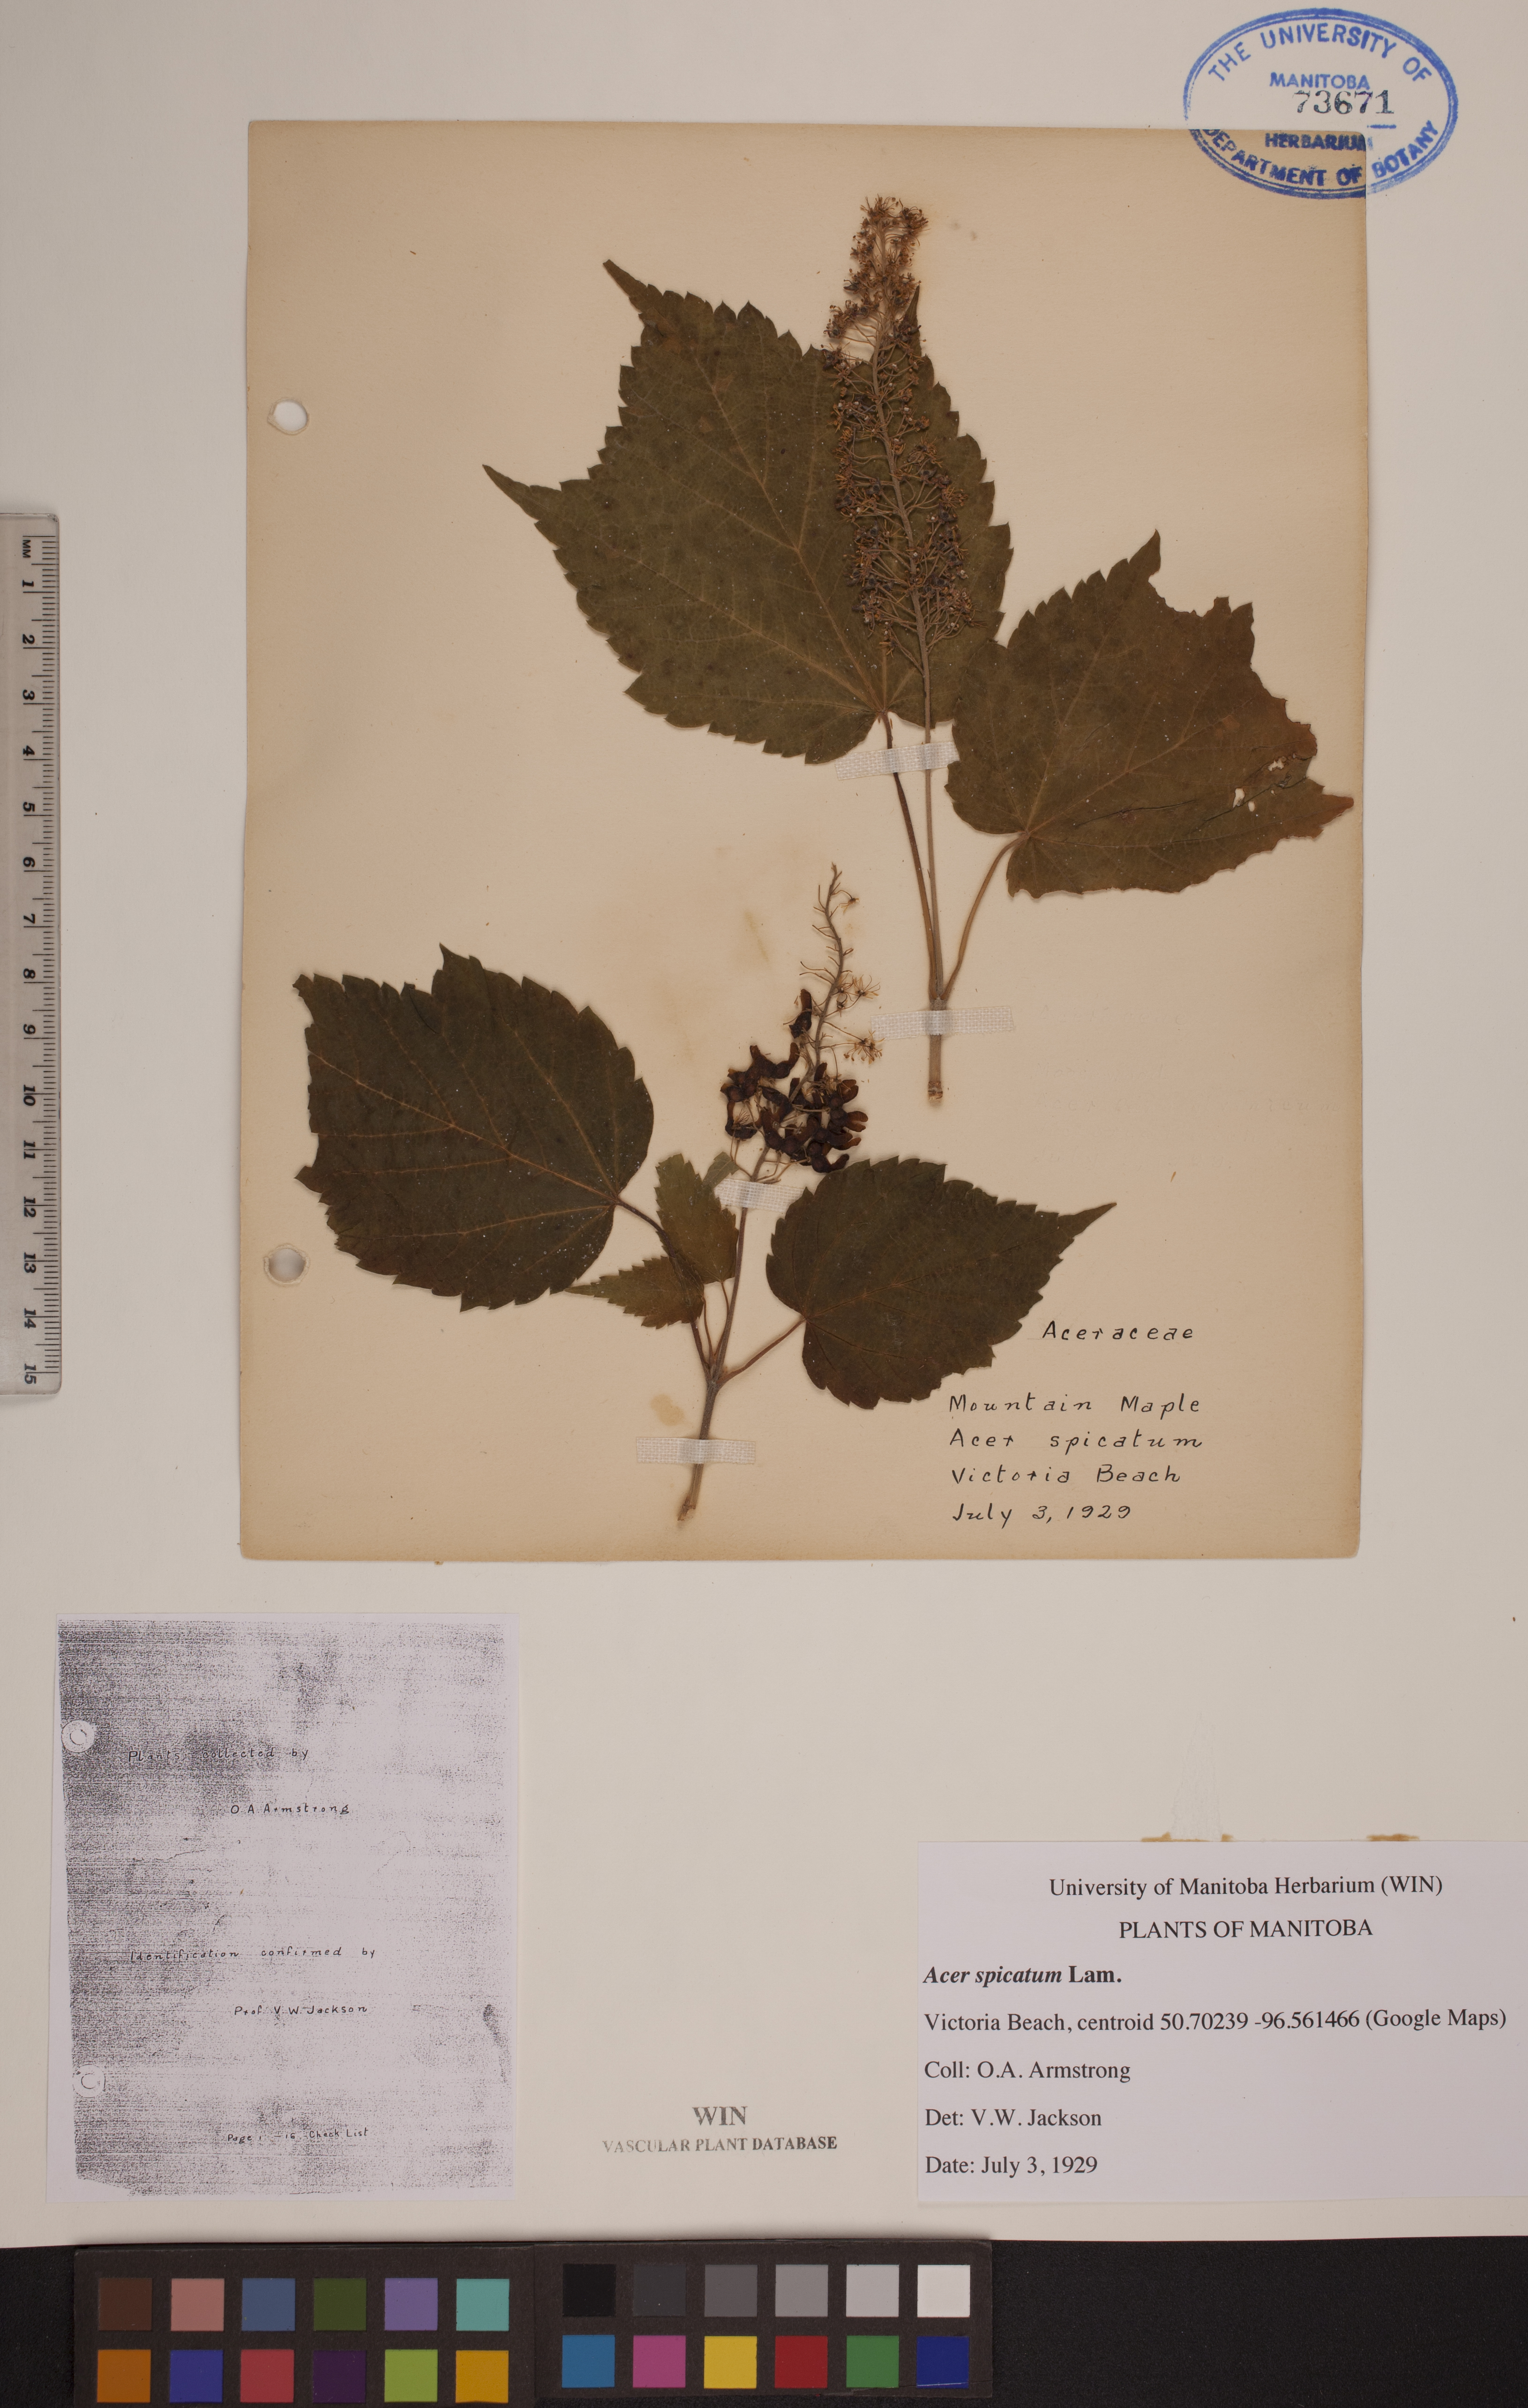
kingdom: Plantae
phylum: Tracheophyta
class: Magnoliopsida
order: Sapindales
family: Sapindaceae
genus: Acer
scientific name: Acer spicatum
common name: Mountain maple
